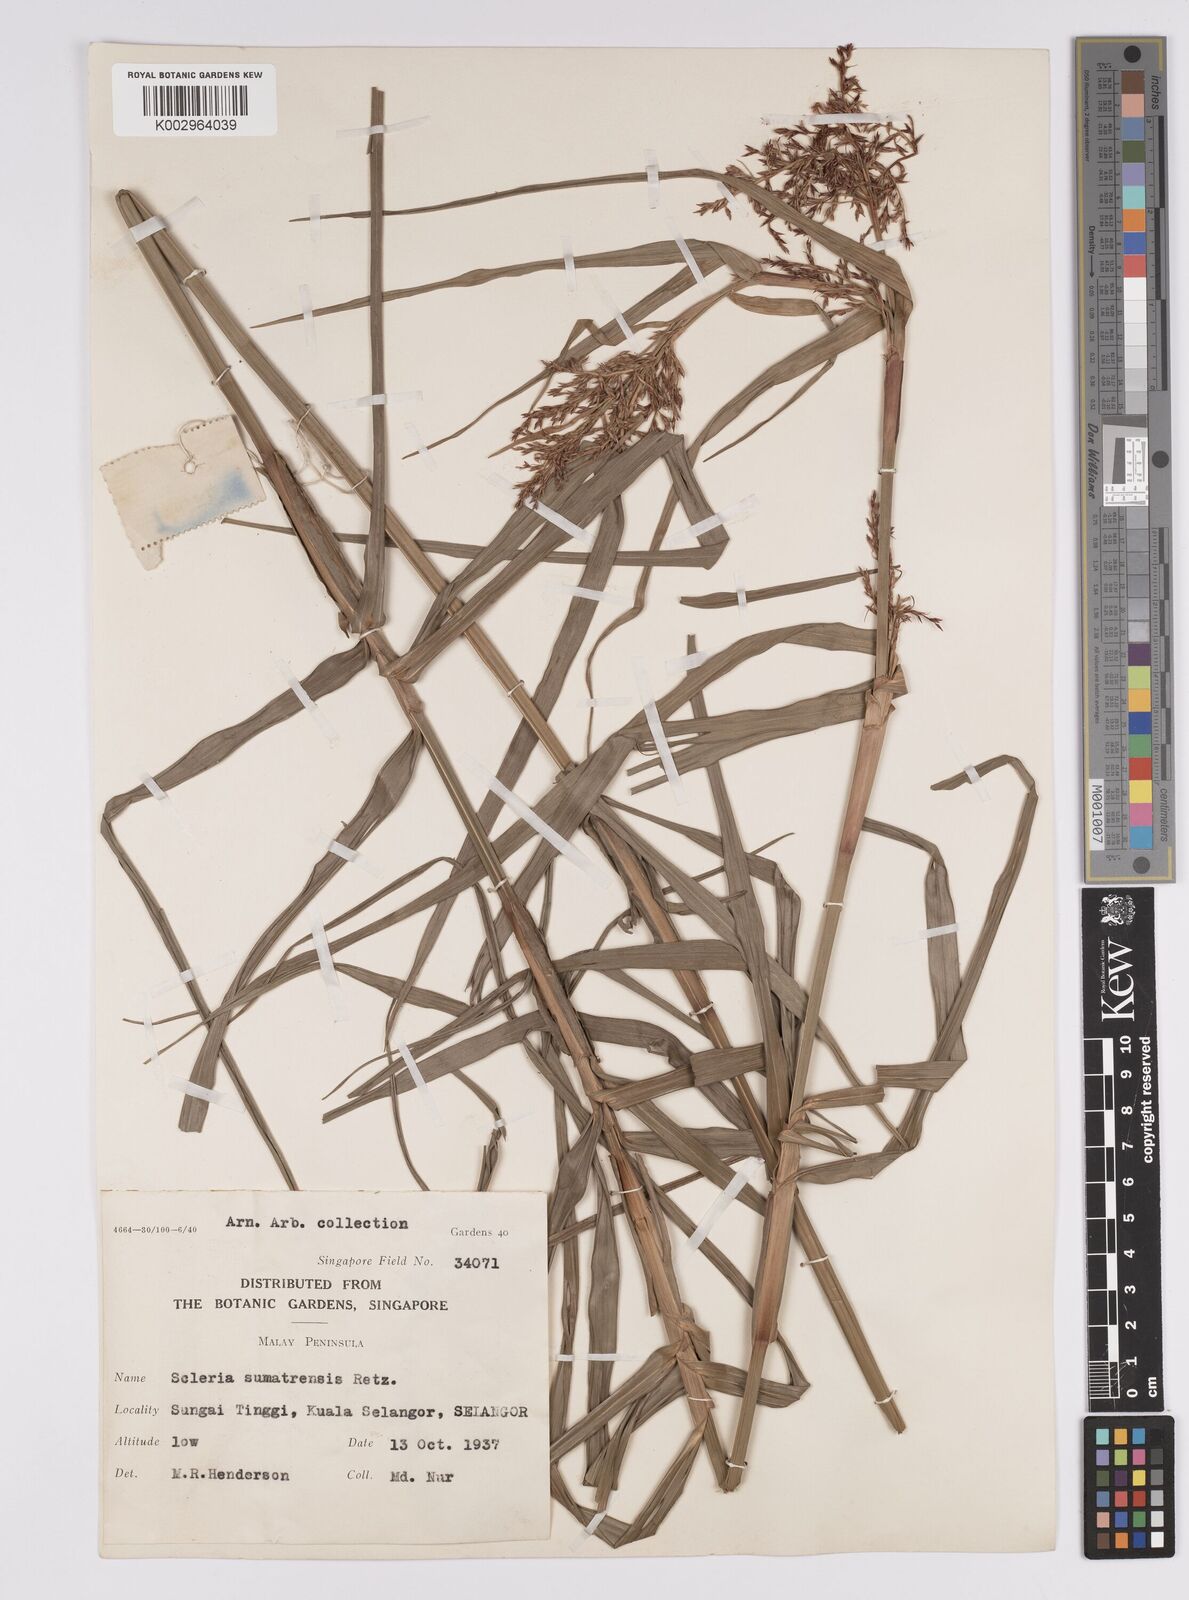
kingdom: Plantae
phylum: Tracheophyta
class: Liliopsida
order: Poales
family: Cyperaceae
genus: Scleria
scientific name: Scleria sumatrensis
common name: Sumatran scleria
